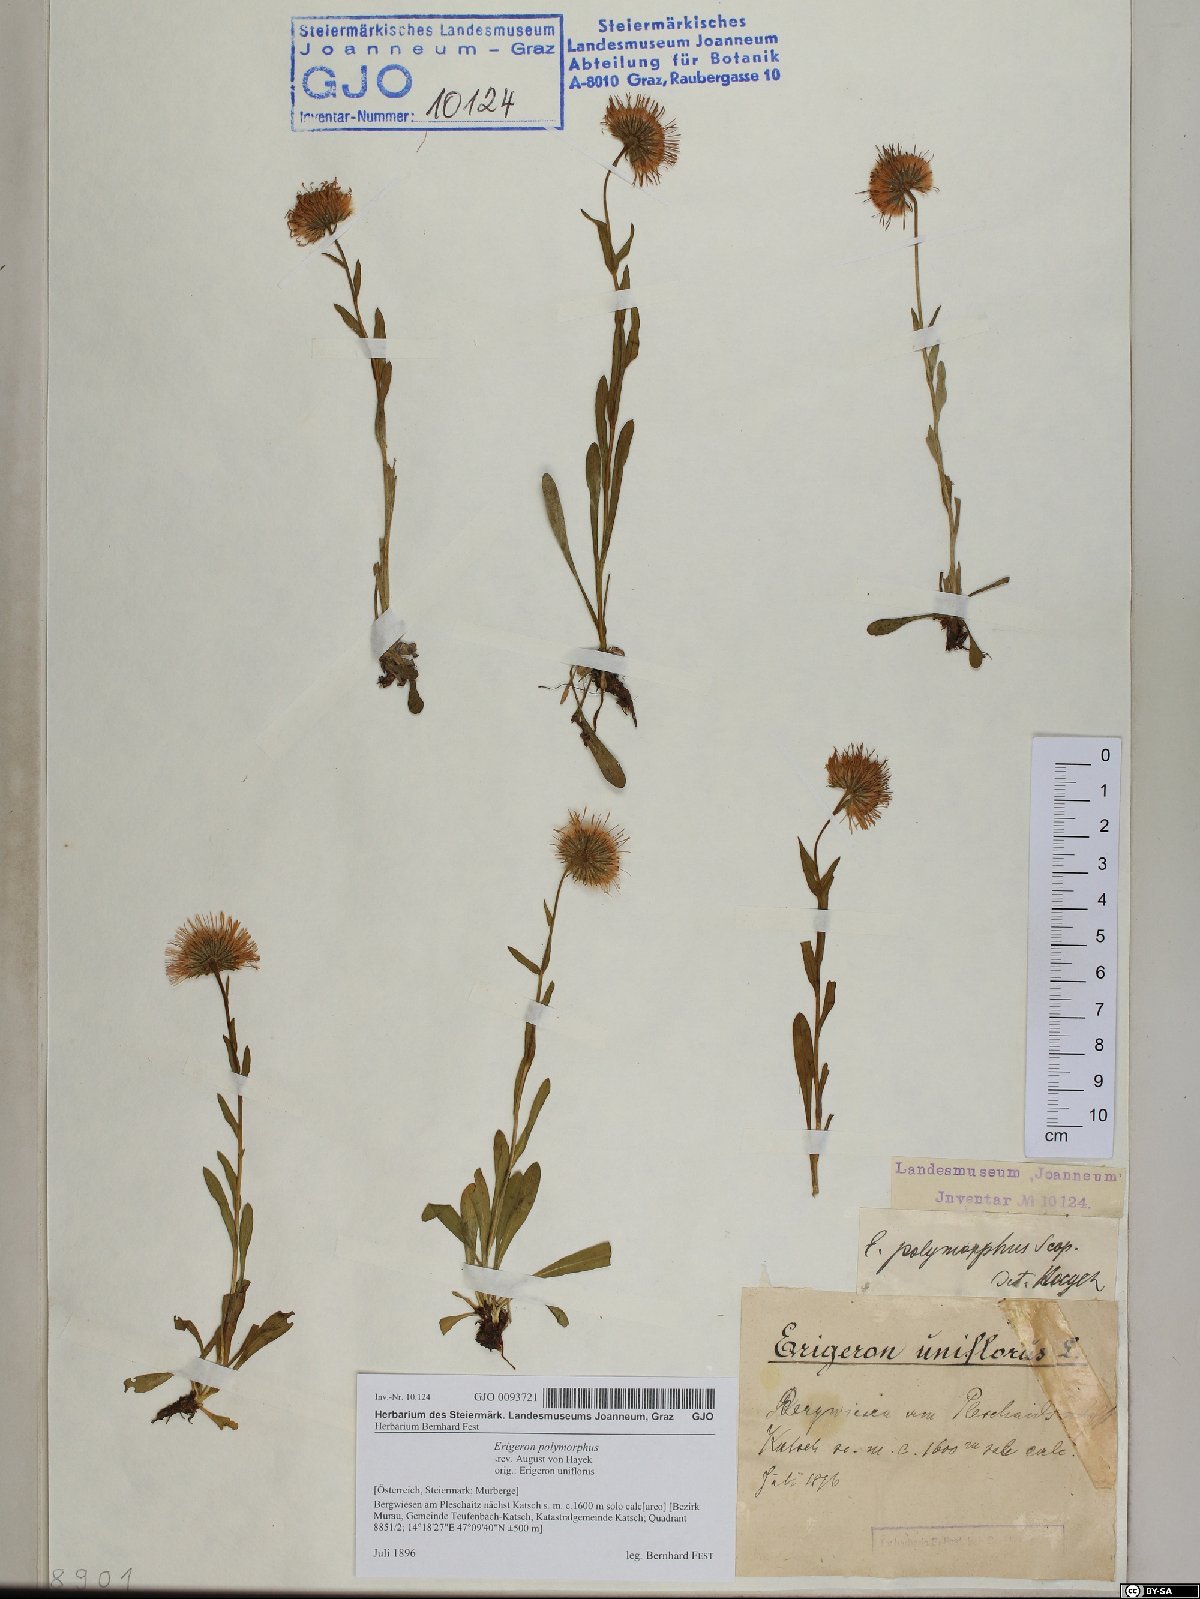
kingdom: Plantae
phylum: Tracheophyta
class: Magnoliopsida
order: Asterales
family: Asteraceae
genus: Erigeron
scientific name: Erigeron alpinus
